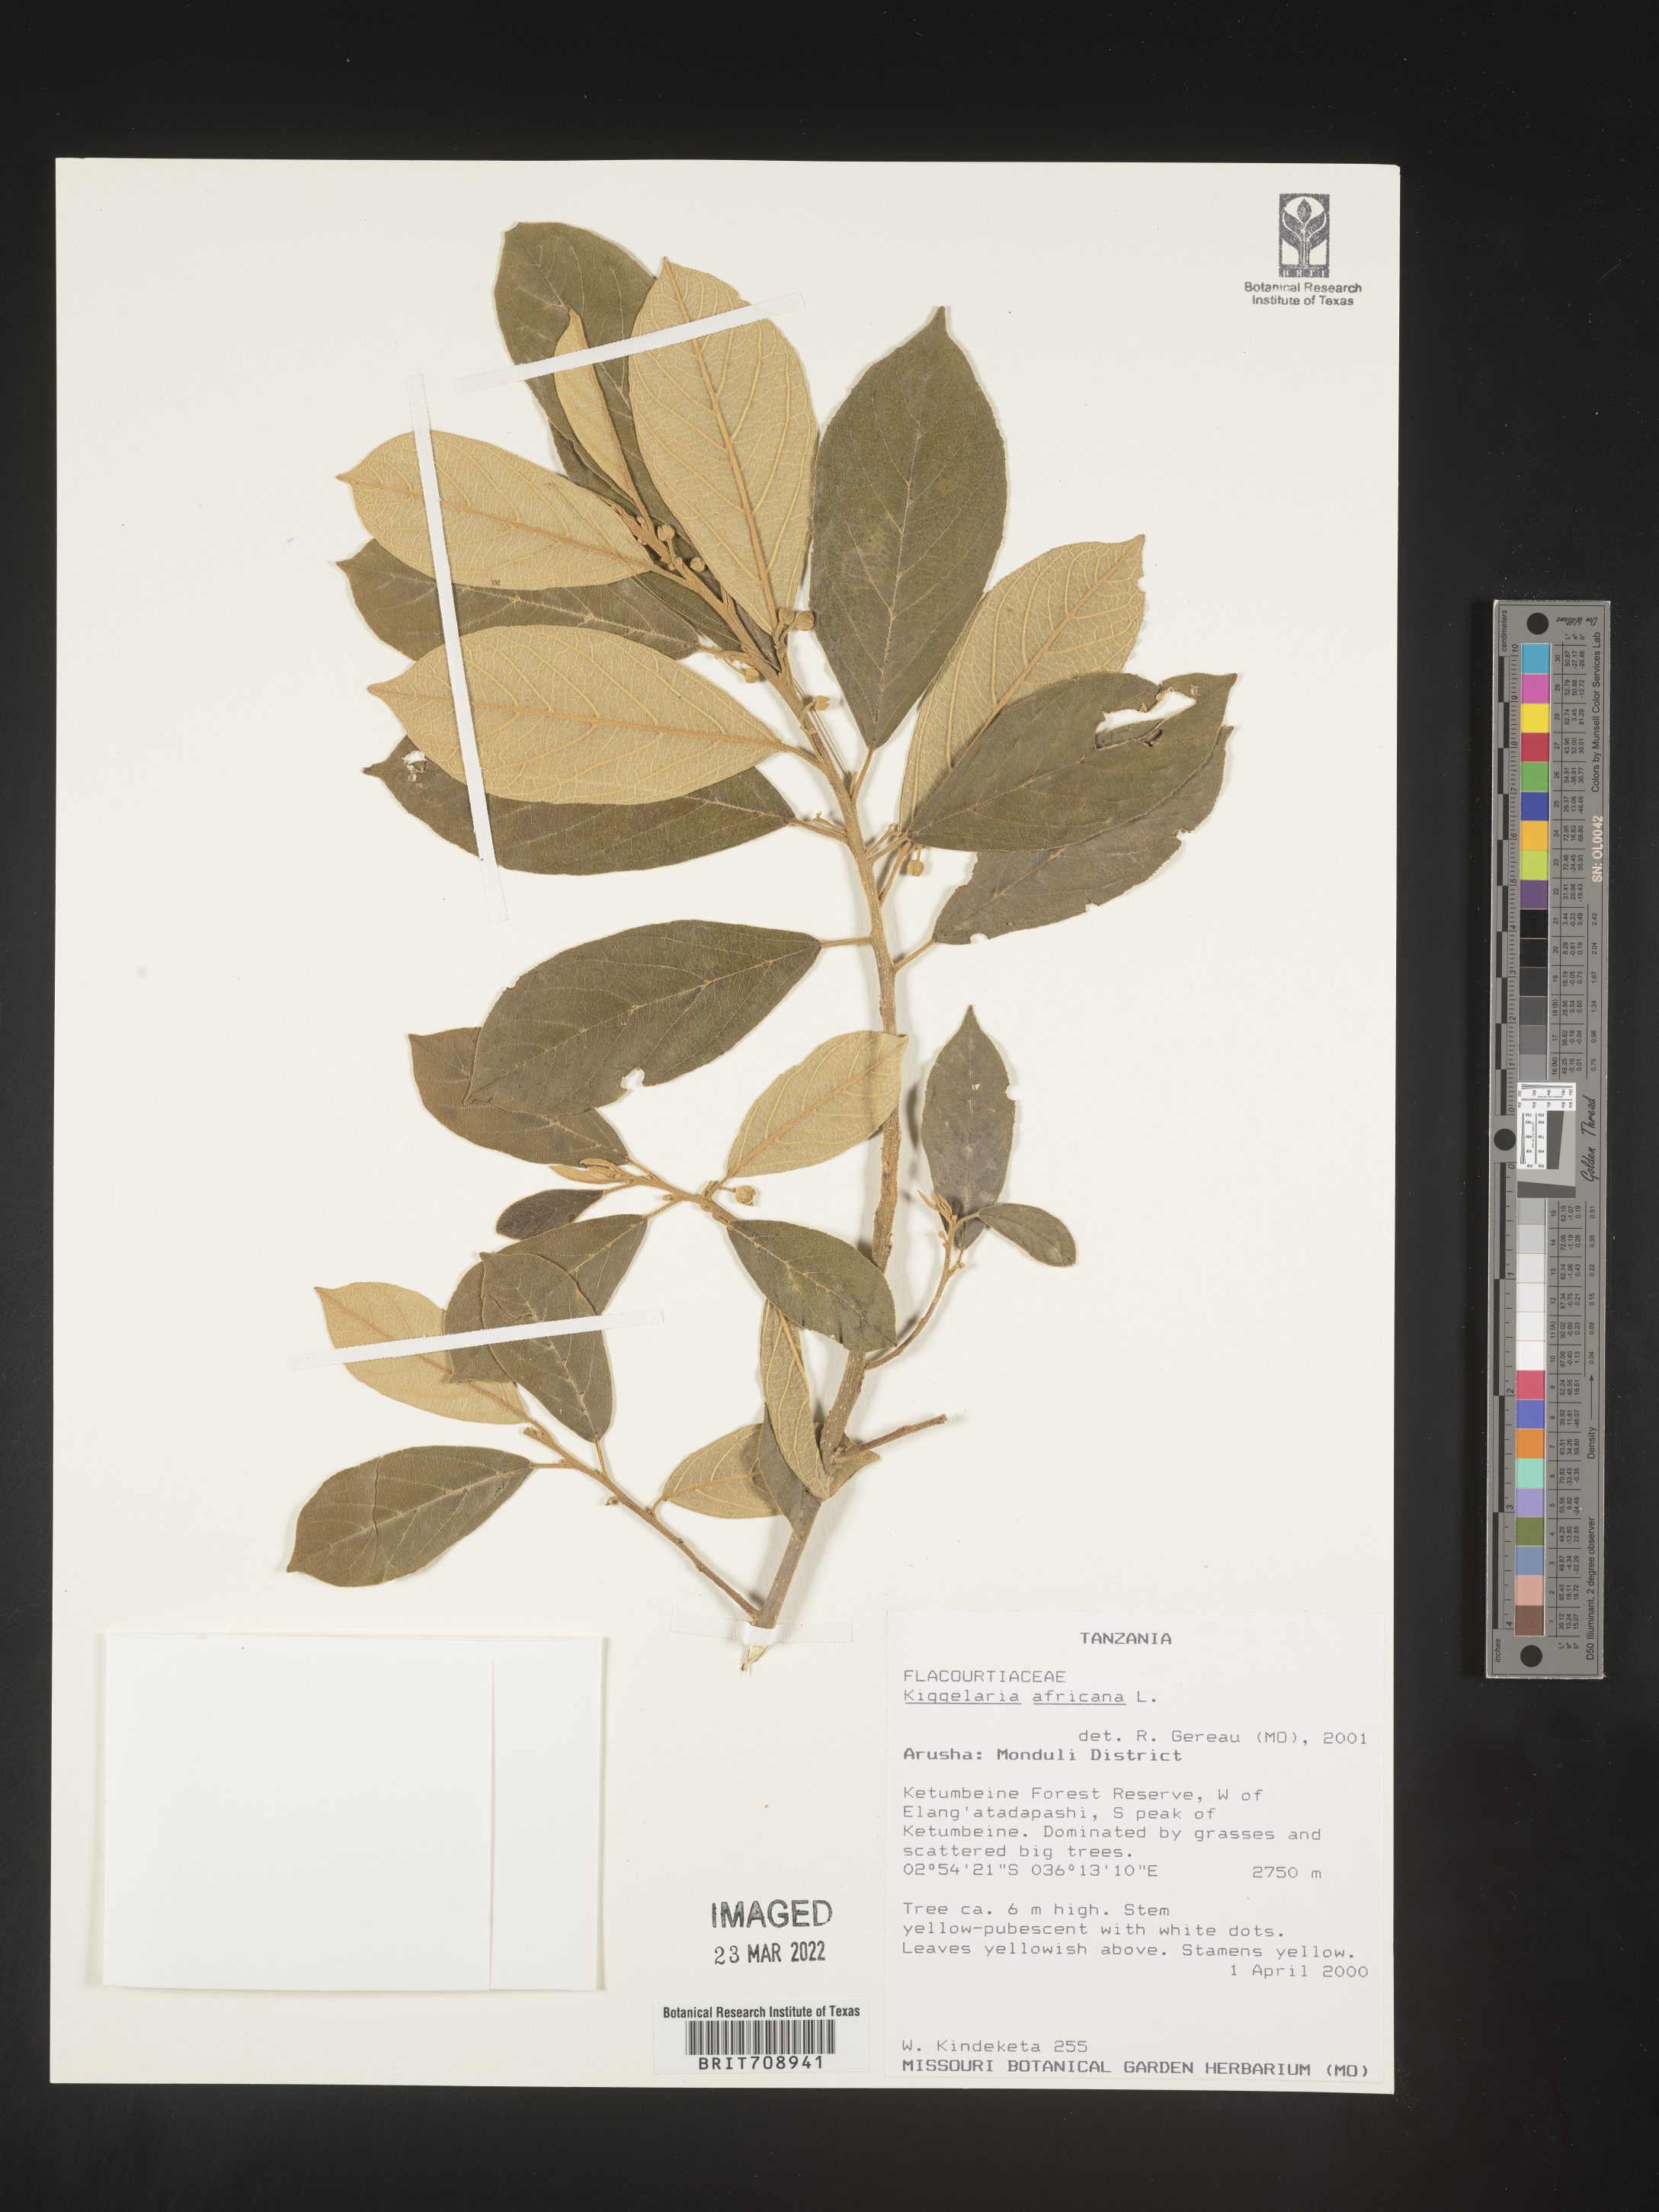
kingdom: Plantae
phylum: Tracheophyta
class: Magnoliopsida
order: Malpighiales
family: Achariaceae
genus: Kiggelaria
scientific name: Kiggelaria
